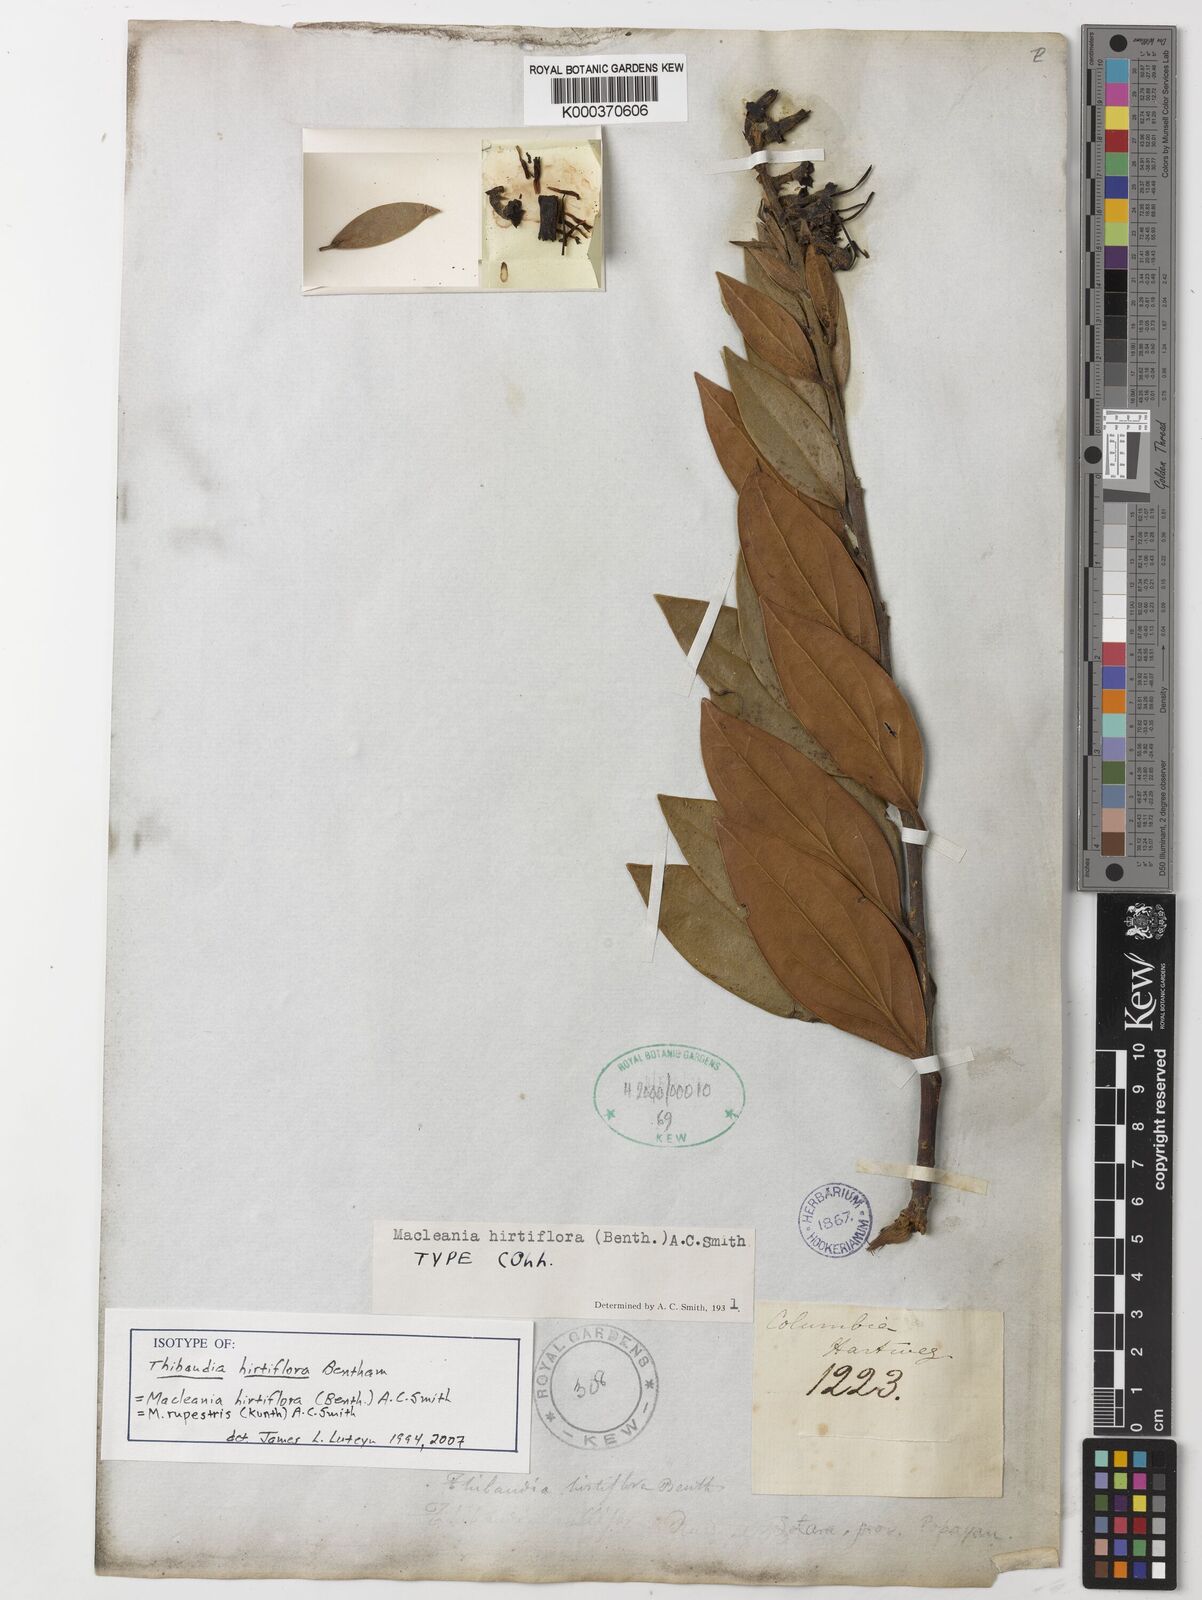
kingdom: Plantae
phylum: Tracheophyta
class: Magnoliopsida
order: Ericales
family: Ericaceae
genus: Macleania
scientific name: Macleania rupestris
